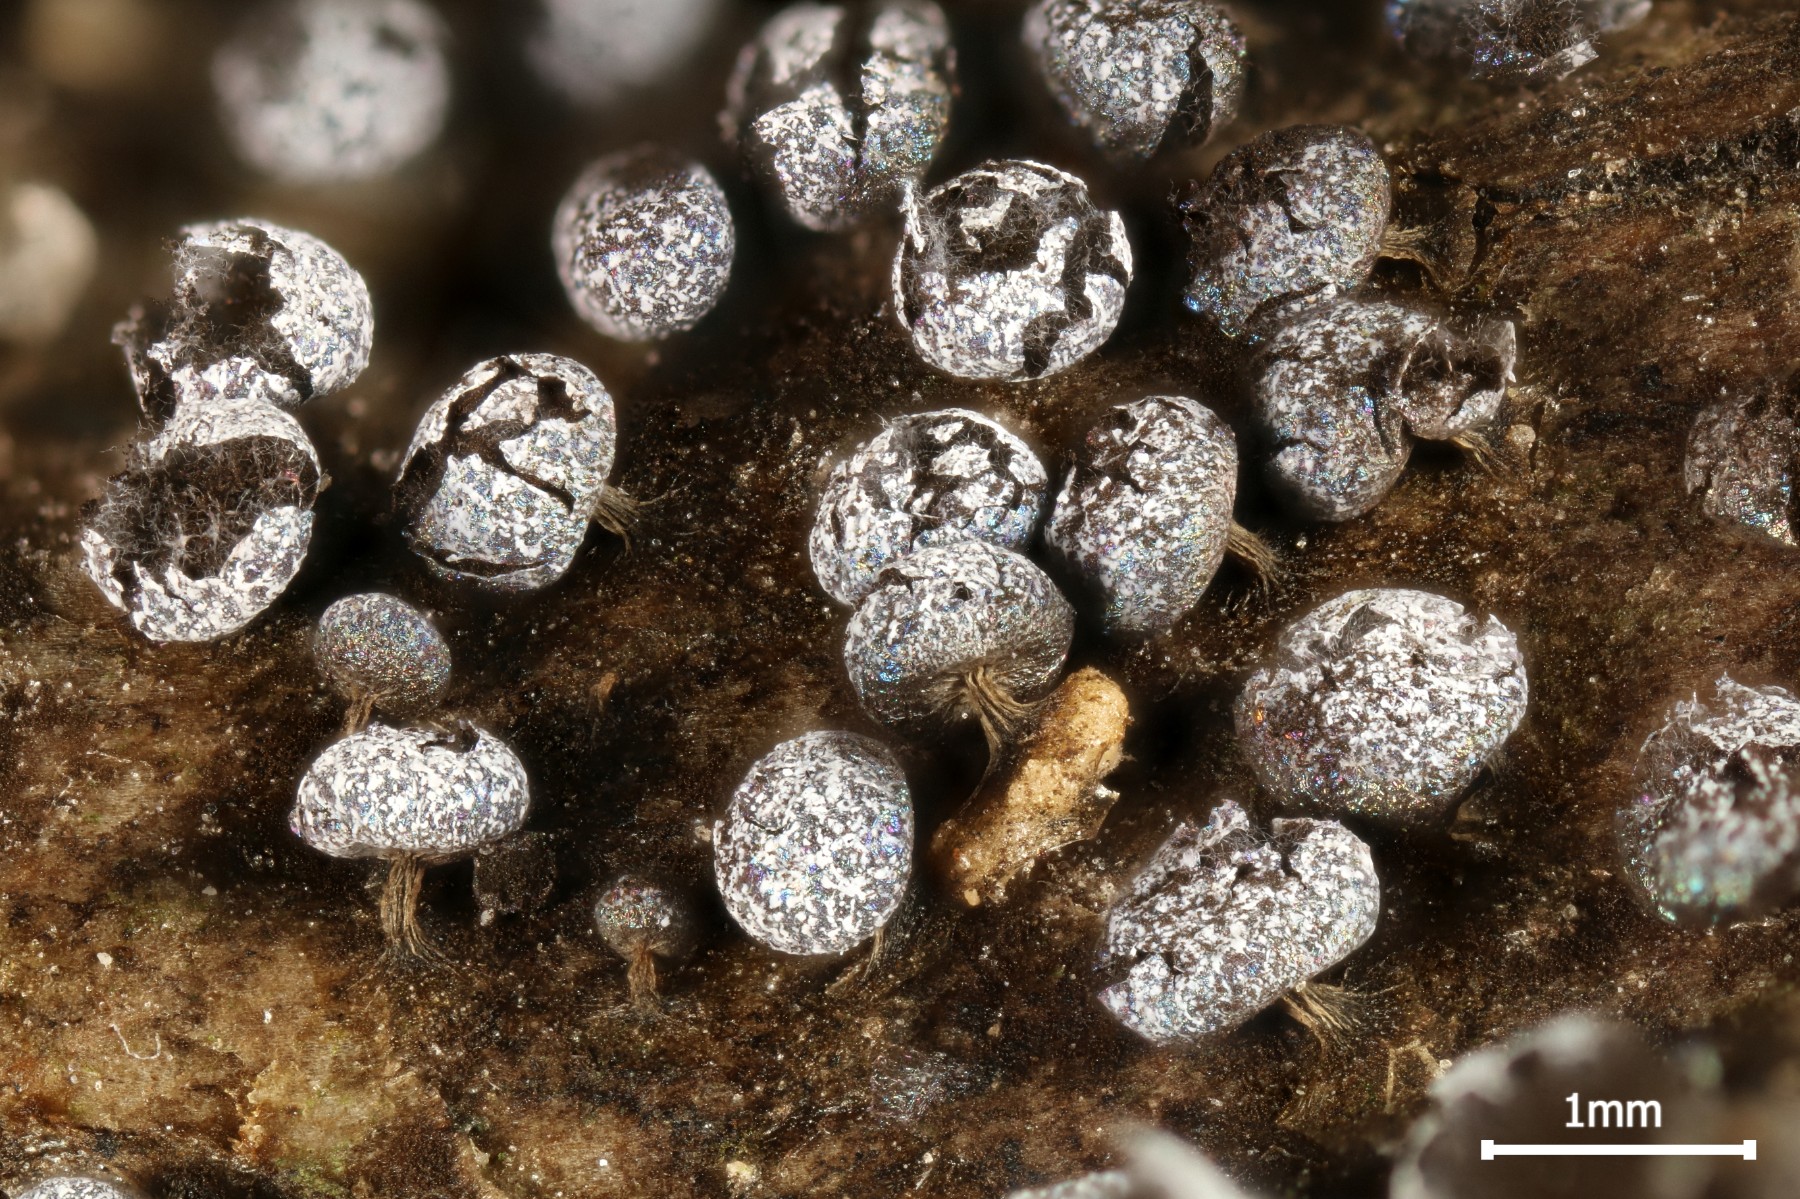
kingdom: Protozoa
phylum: Mycetozoa
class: Myxomycetes
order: Physarales
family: Physaraceae
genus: Physarum
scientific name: Physarum leucophaeum
